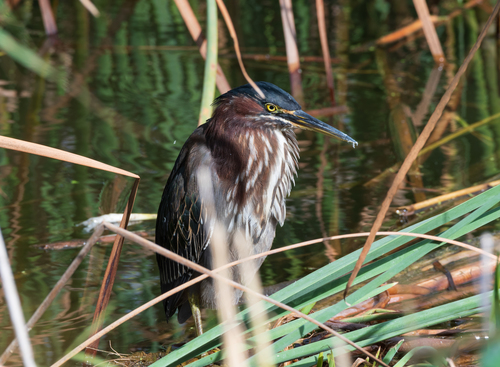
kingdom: Animalia
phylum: Chordata
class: Aves
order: Pelecaniformes
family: Ardeidae
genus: Butorides
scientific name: Butorides virescens
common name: Green heron
